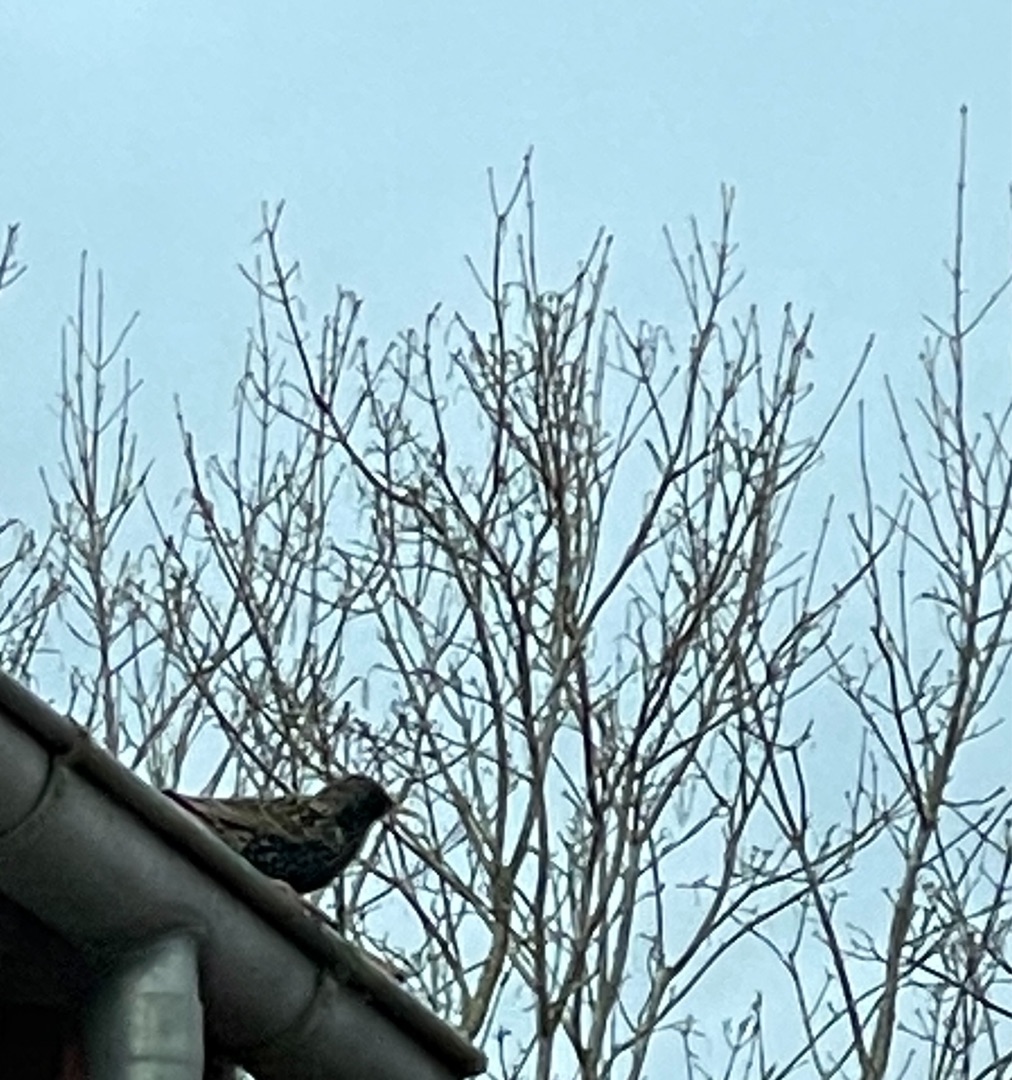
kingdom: Animalia
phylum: Chordata
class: Aves
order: Passeriformes
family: Sturnidae
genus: Sturnus
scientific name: Sturnus vulgaris
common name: Stær
